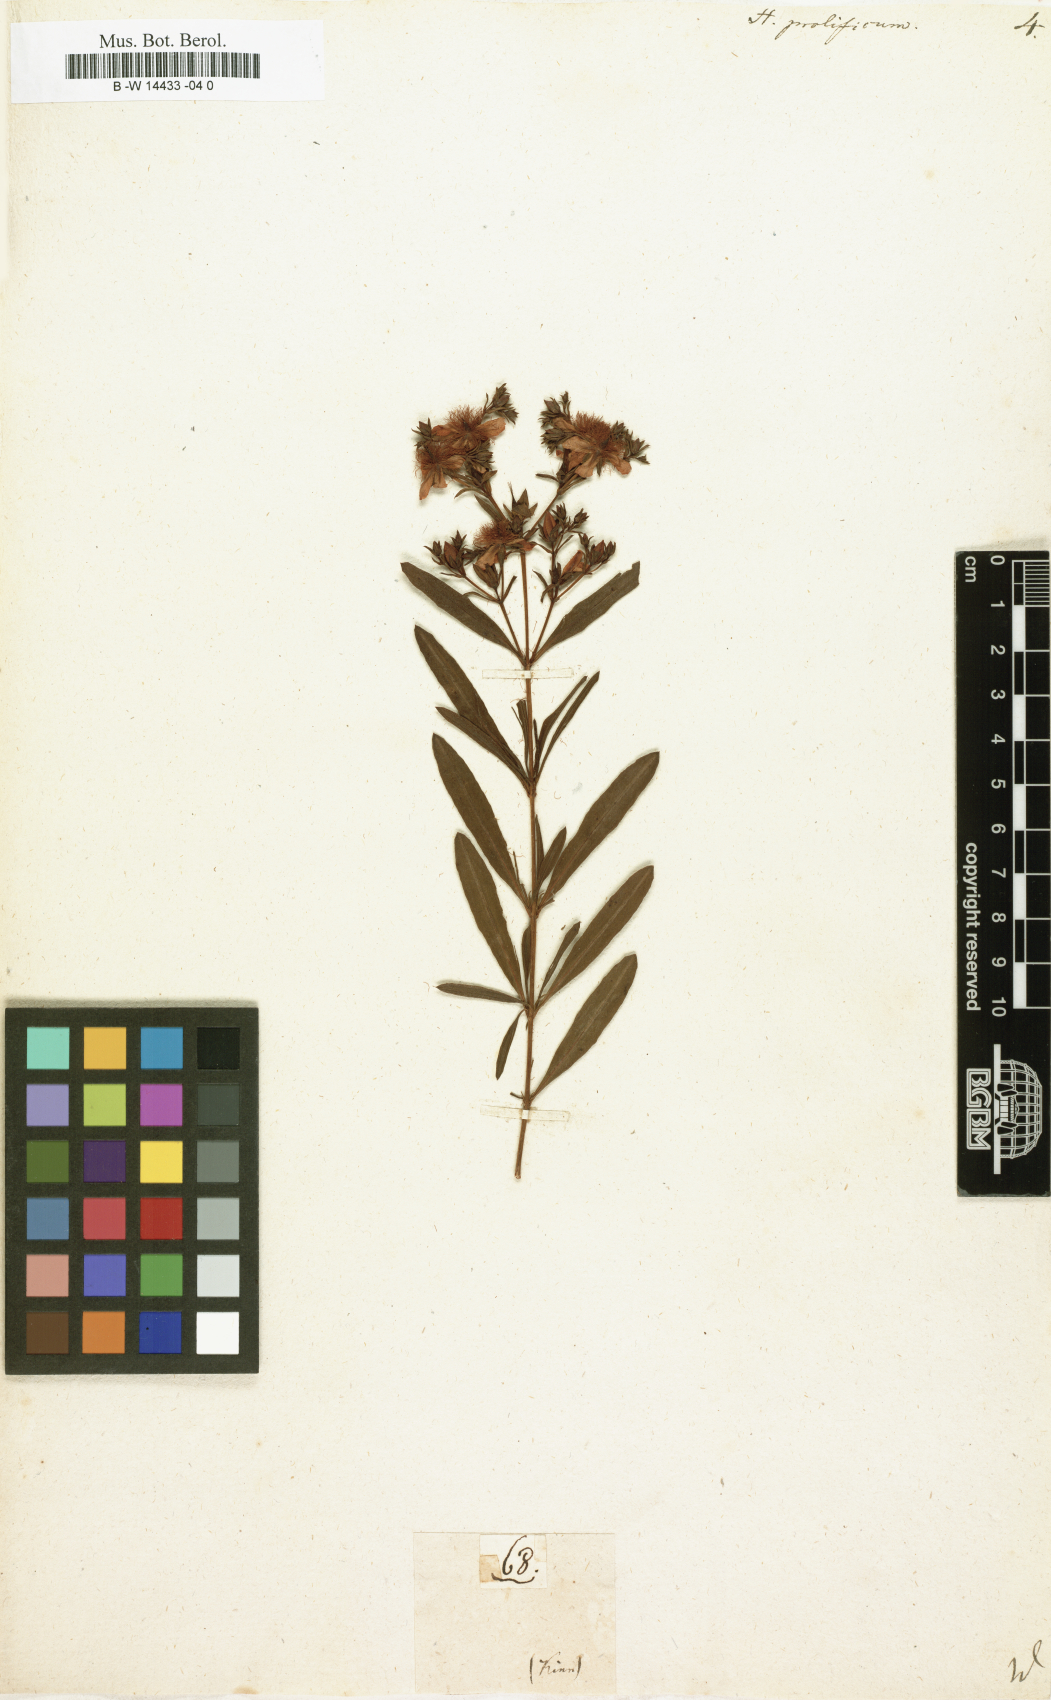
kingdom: Plantae
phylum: Tracheophyta
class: Magnoliopsida
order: Malpighiales
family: Hypericaceae
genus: Hypericum
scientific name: Hypericum prolificum
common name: Shrubby st. john's-wort
